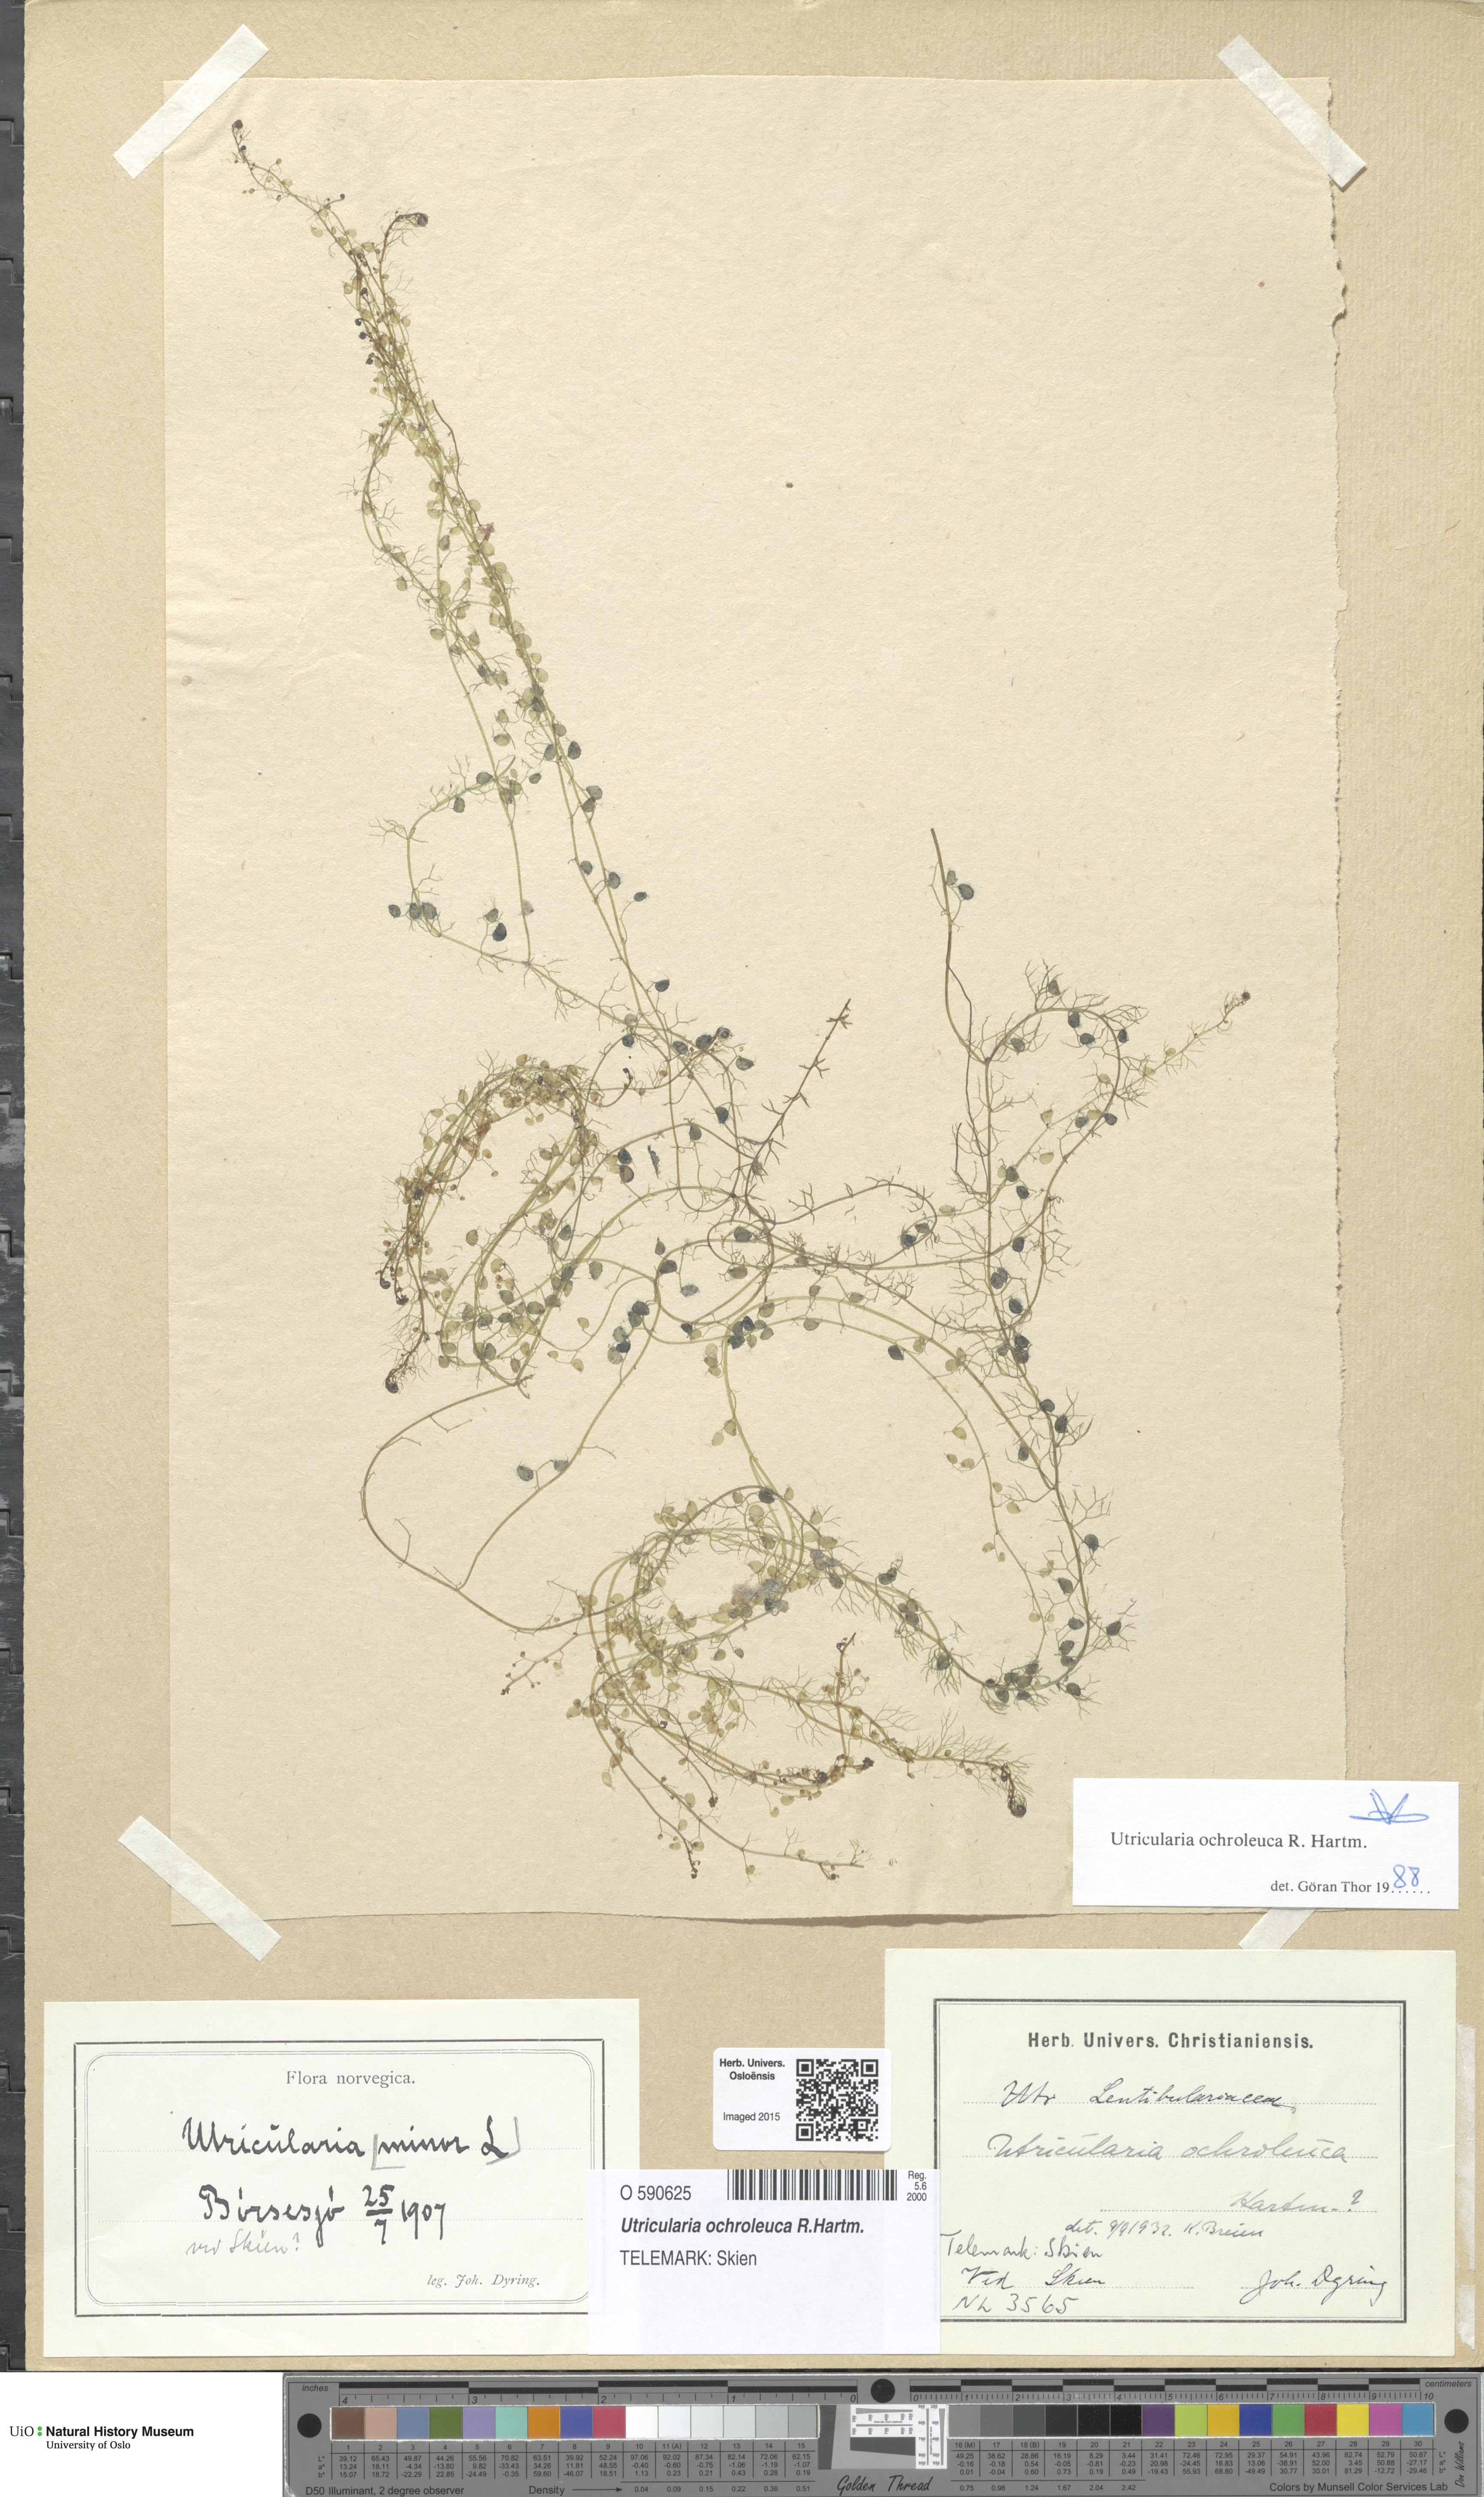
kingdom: Plantae
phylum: Tracheophyta
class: Magnoliopsida
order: Lamiales
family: Lentibulariaceae
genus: Utricularia
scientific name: Utricularia ochroleuca
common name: Pale bladderwort
